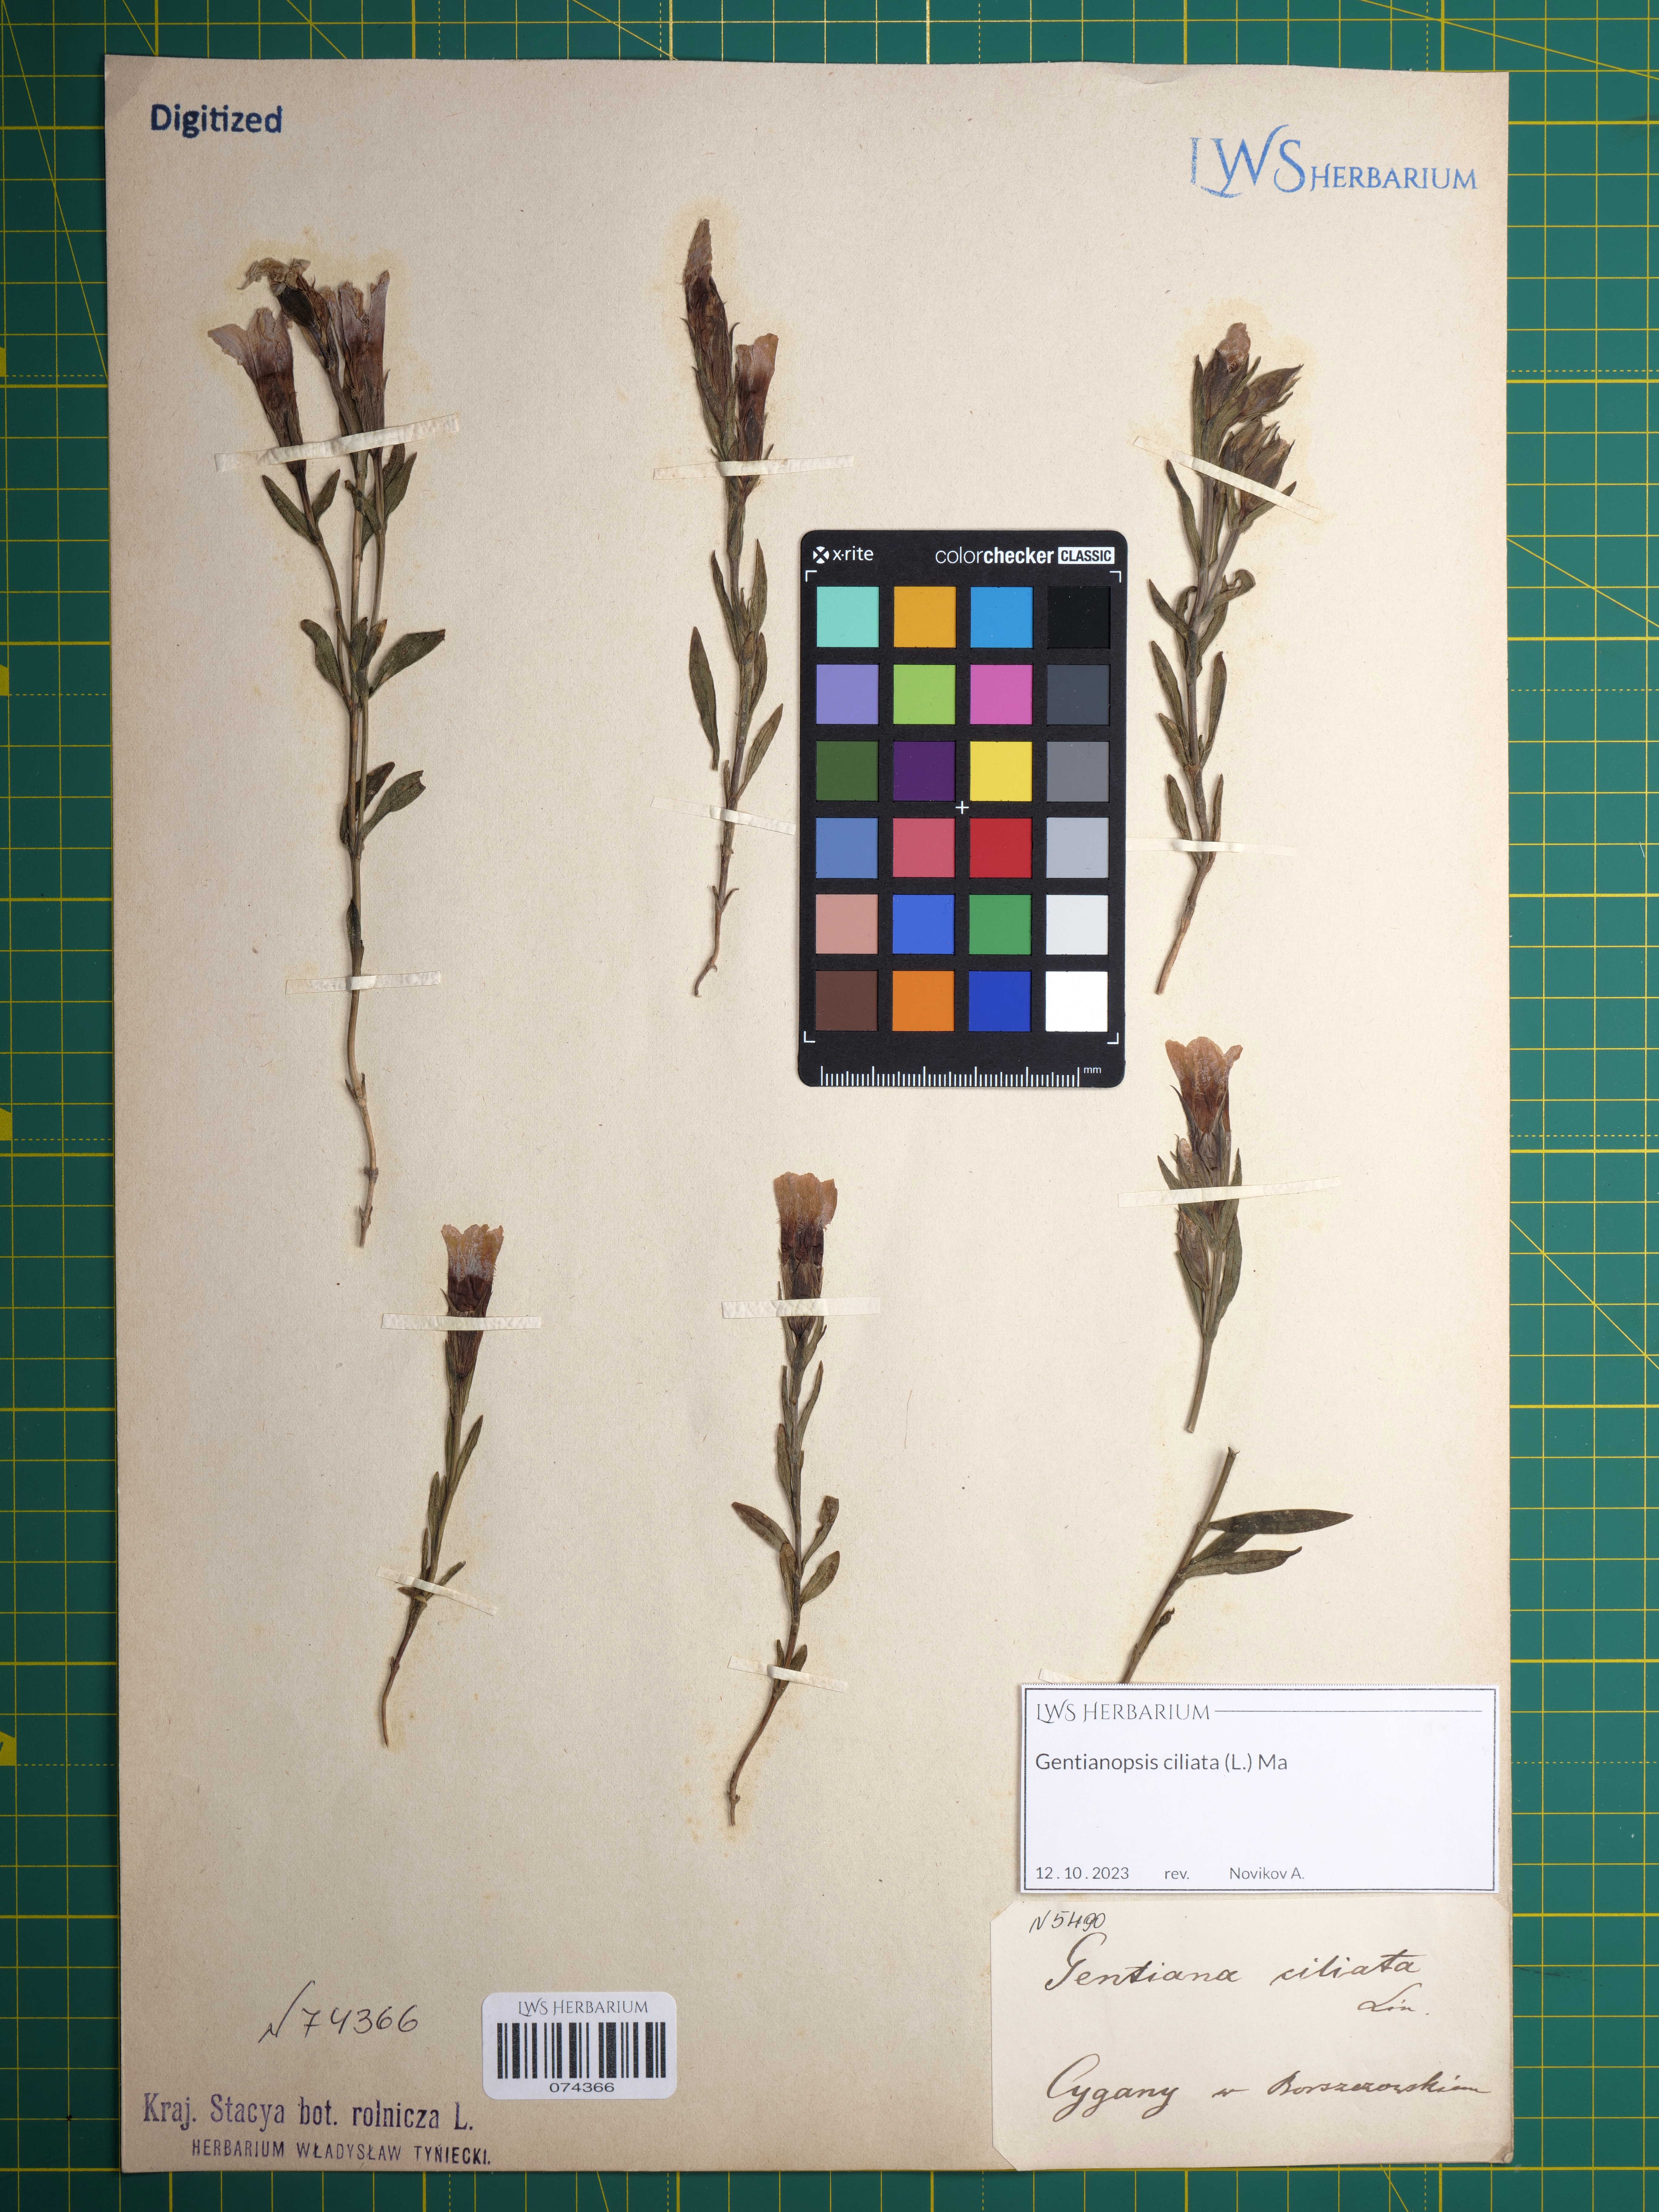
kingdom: Plantae
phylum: Tracheophyta
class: Magnoliopsida
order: Gentianales
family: Gentianaceae
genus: Gentianopsis
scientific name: Gentianopsis ciliata
